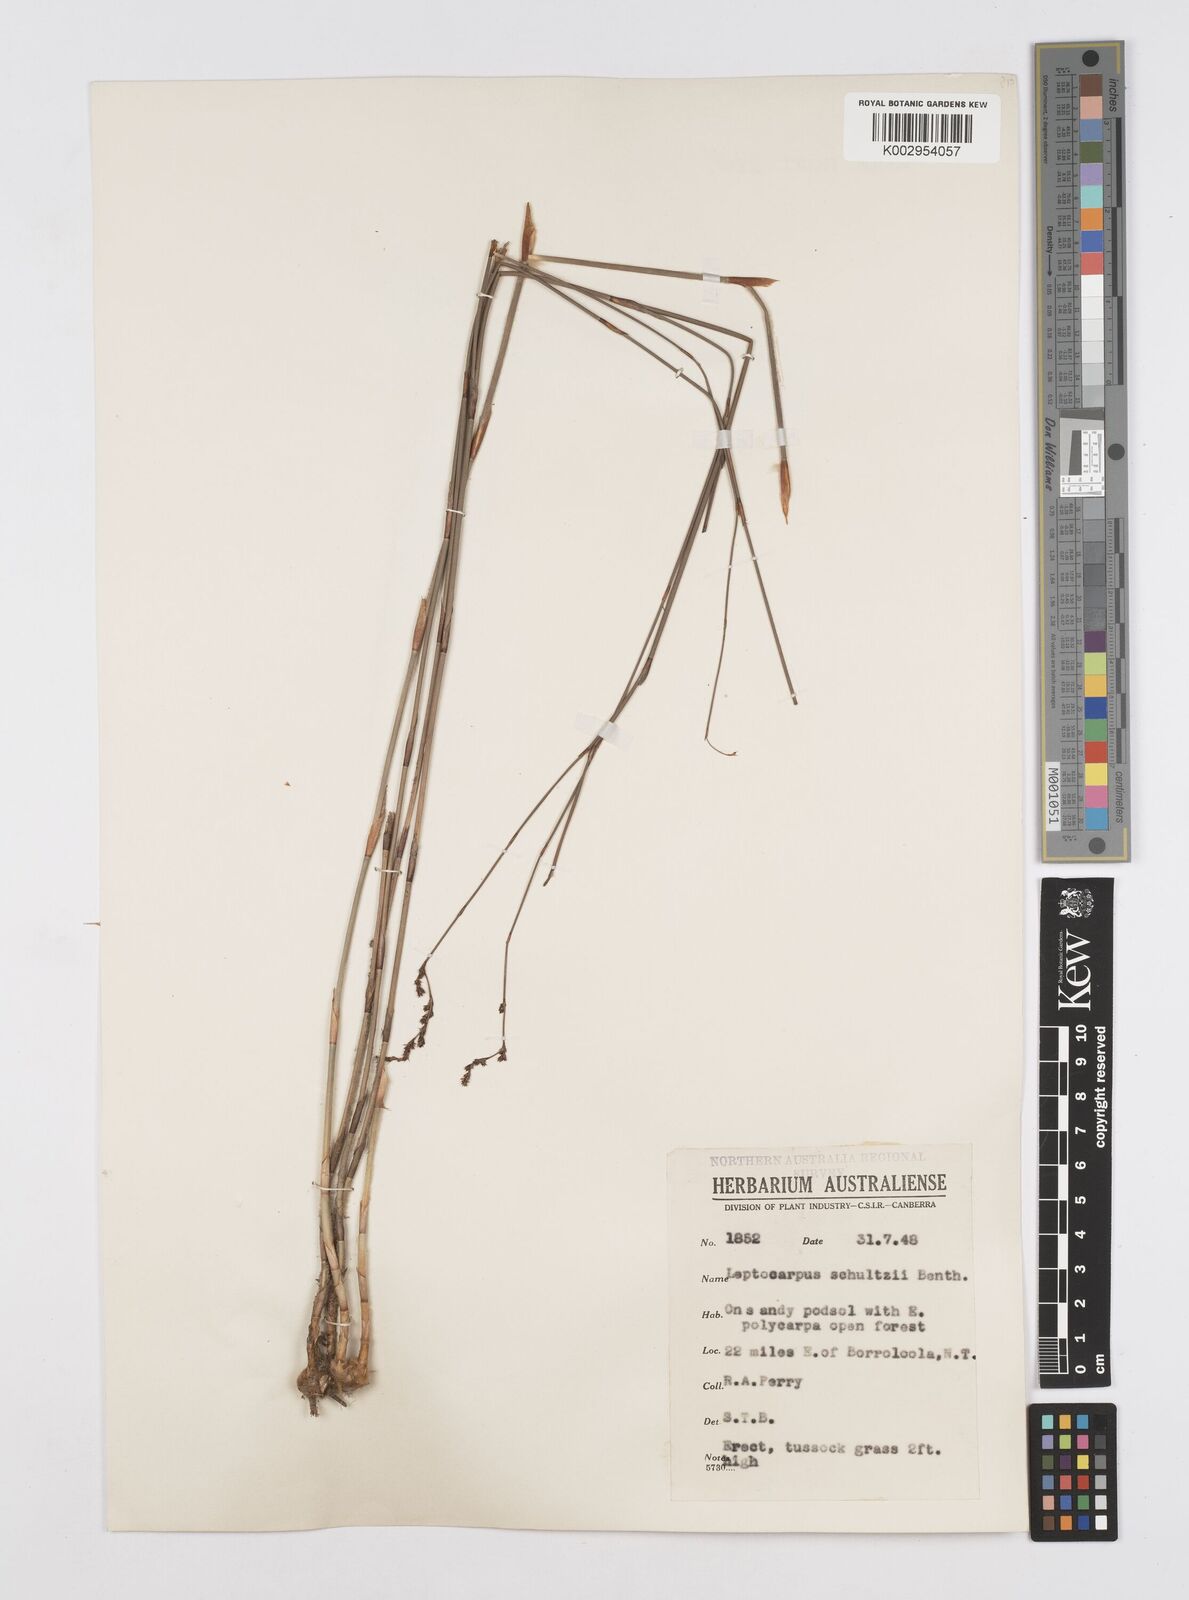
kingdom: Plantae
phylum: Tracheophyta
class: Liliopsida
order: Poales
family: Restionaceae
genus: Dapsilanthus
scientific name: Dapsilanthus spathaceus
